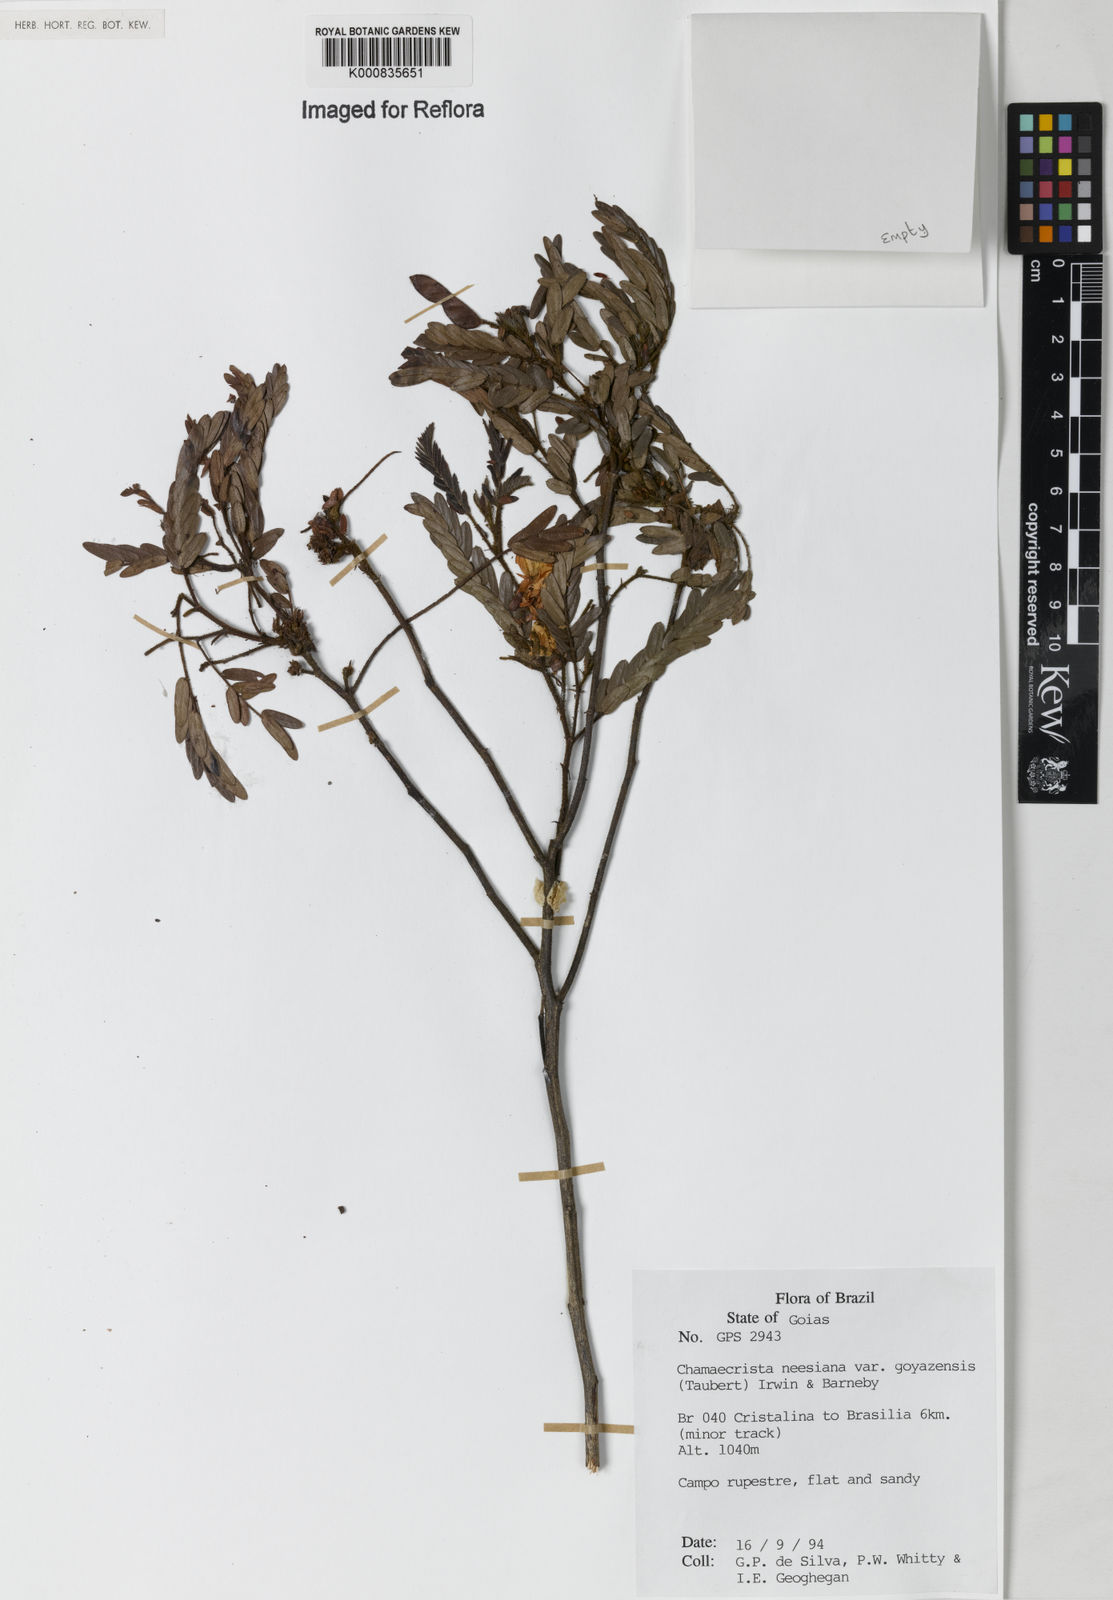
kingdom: Plantae
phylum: Tracheophyta
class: Magnoliopsida
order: Fabales
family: Fabaceae
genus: Chamaecrista
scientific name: Chamaecrista neesiana
